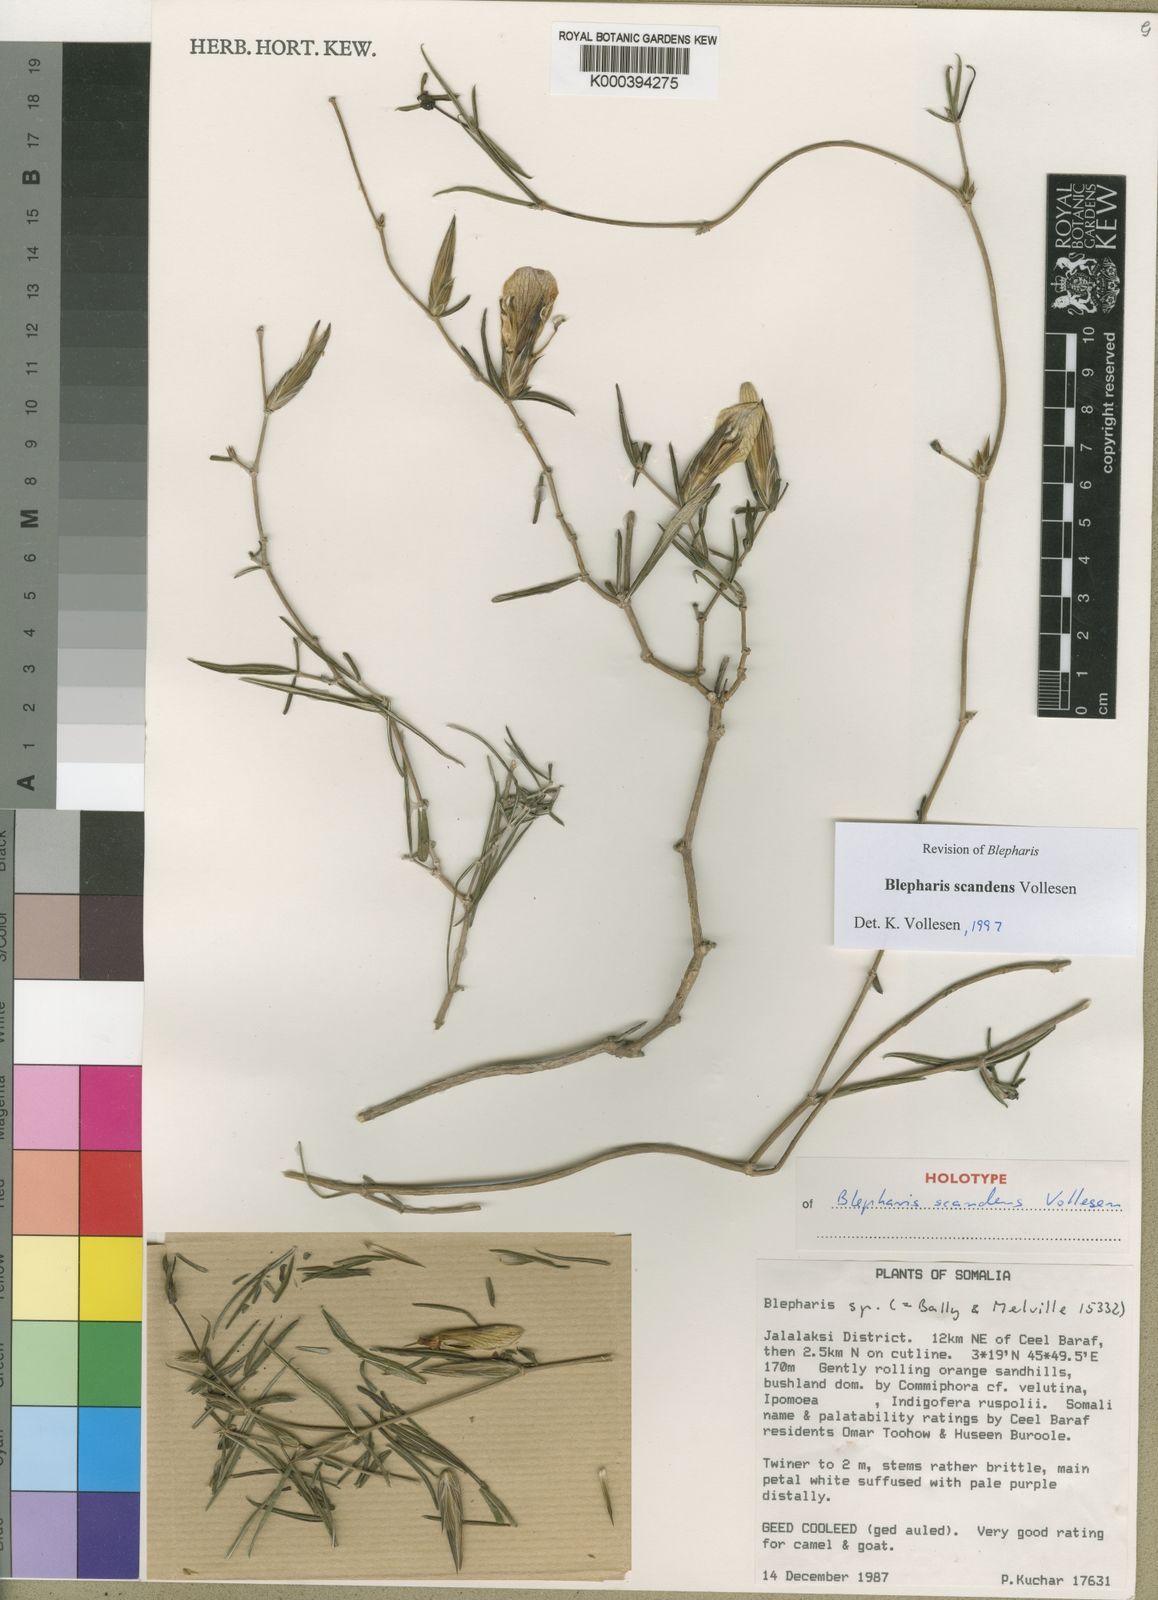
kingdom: Plantae
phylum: Tracheophyta
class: Magnoliopsida
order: Lamiales
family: Acanthaceae
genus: Blepharis
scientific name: Blepharis scandens
